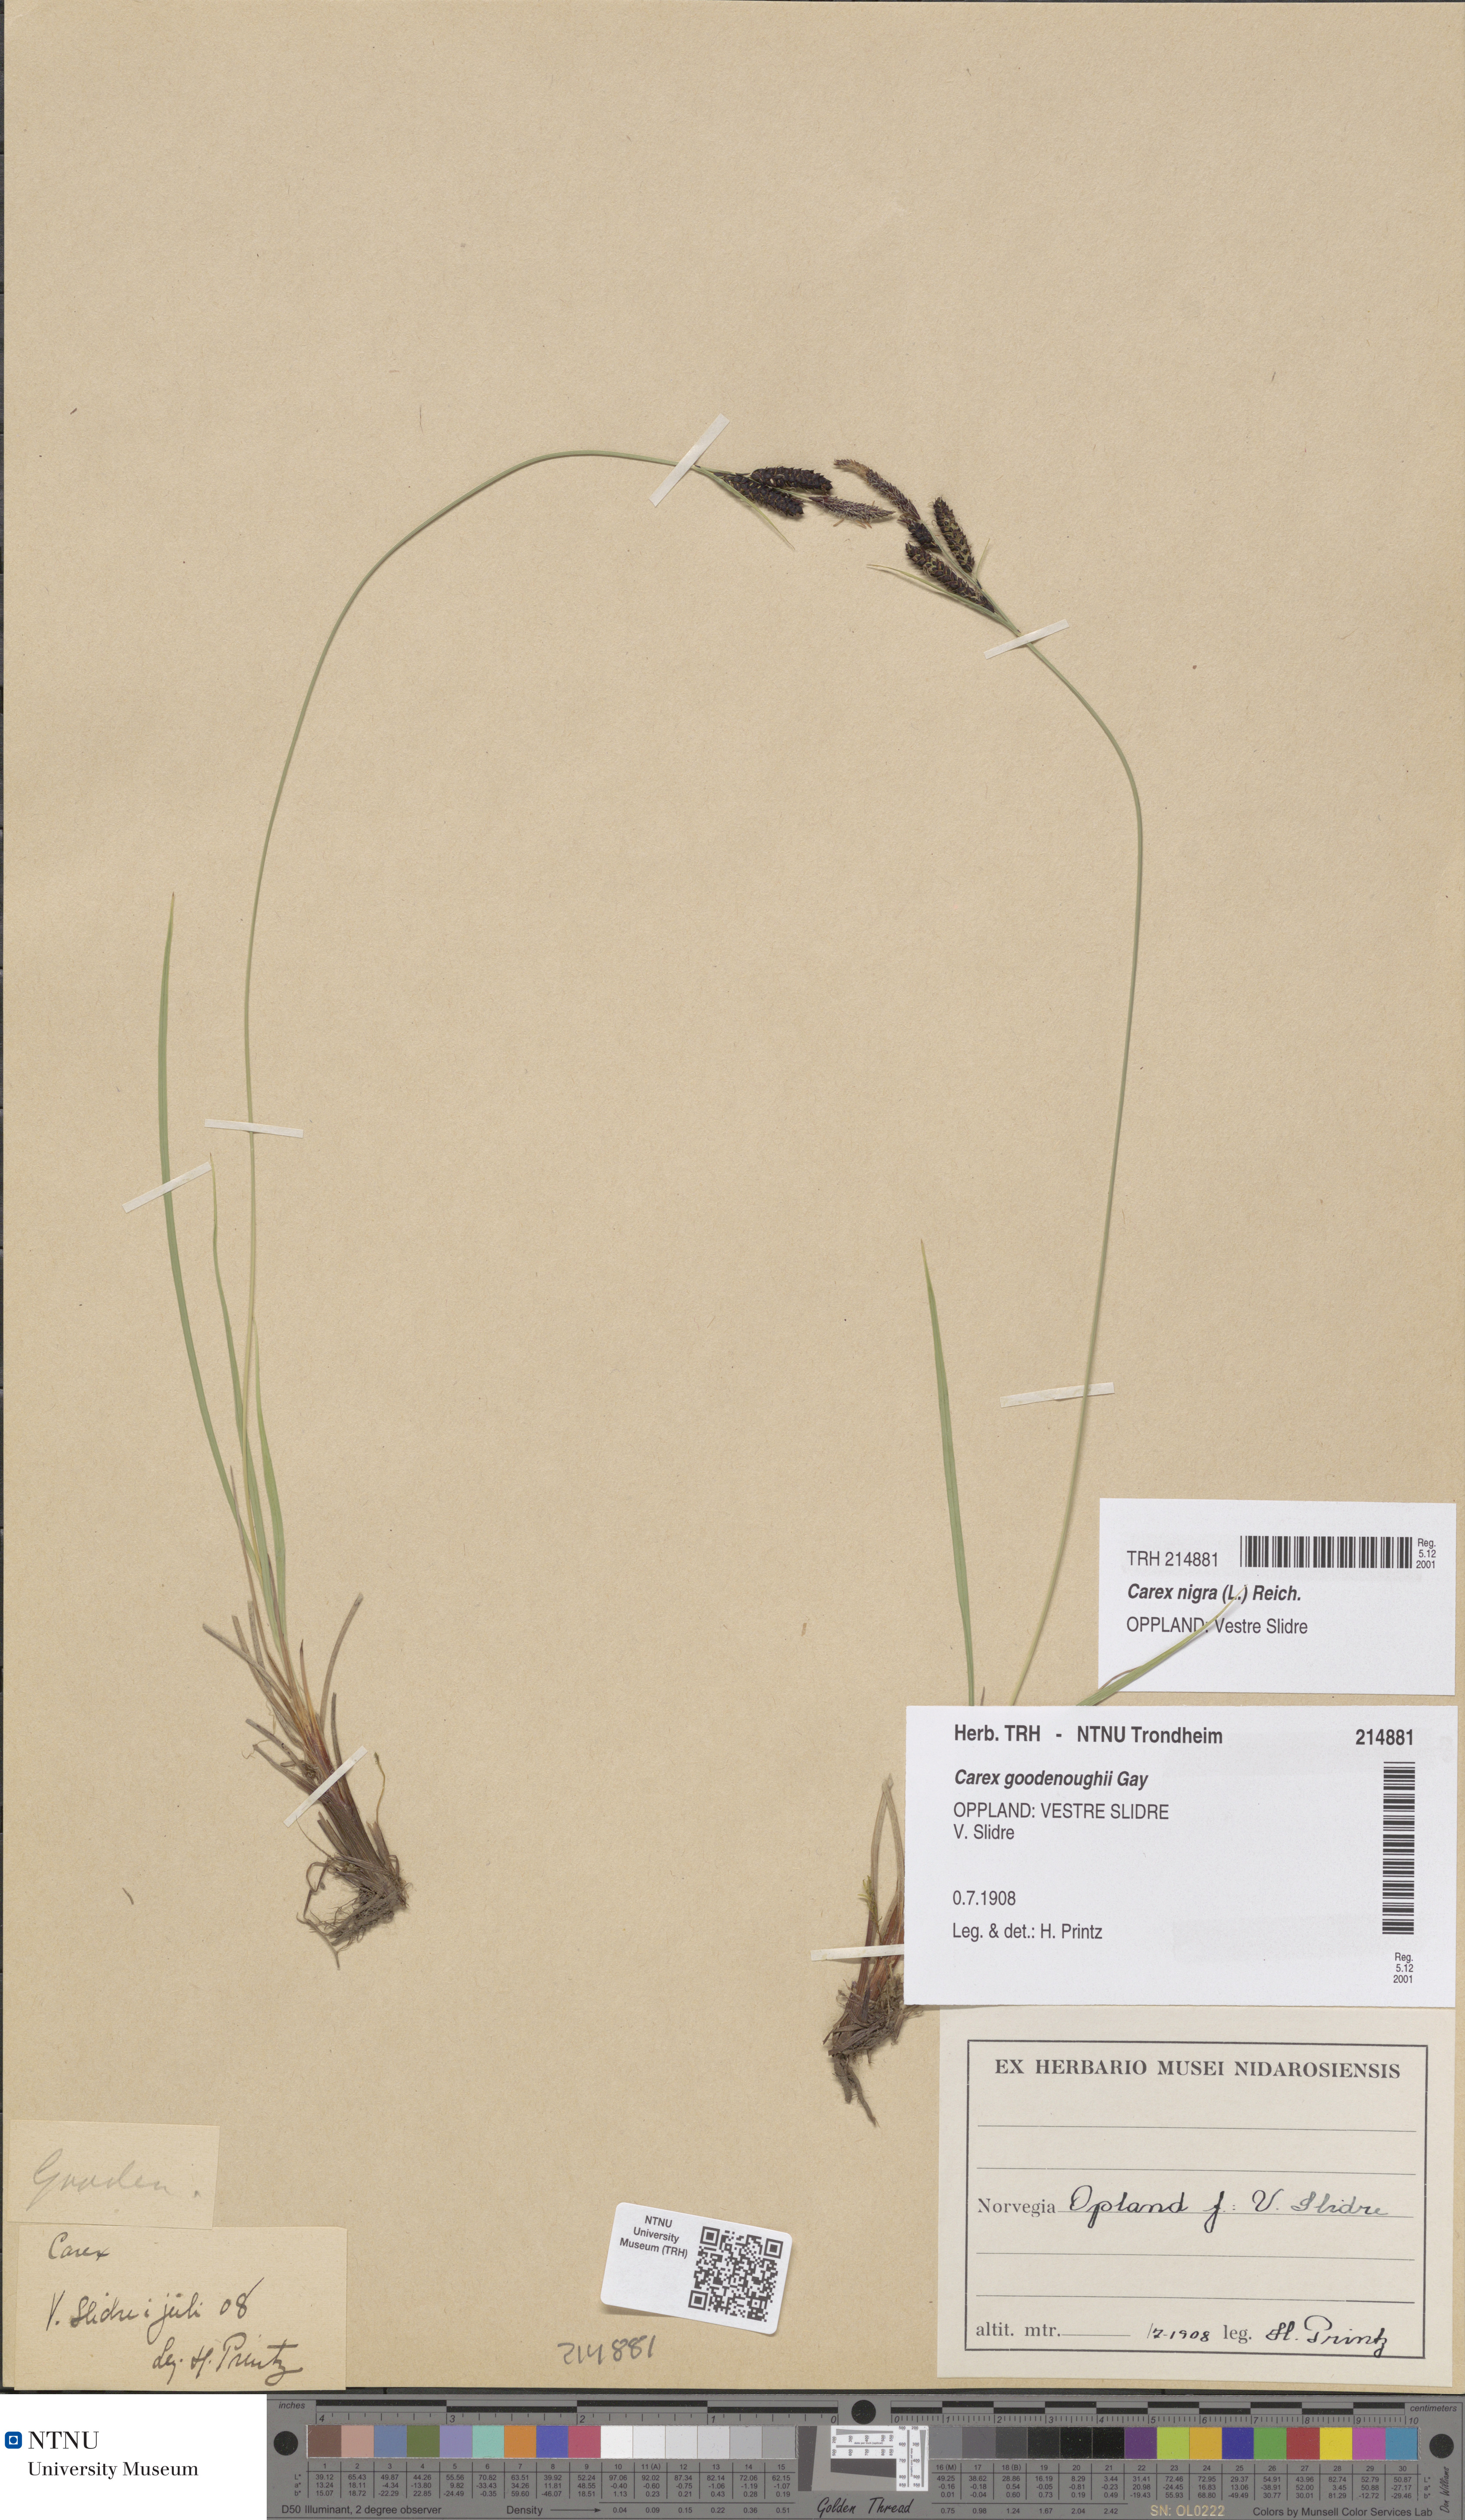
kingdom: Plantae
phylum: Tracheophyta
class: Liliopsida
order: Poales
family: Cyperaceae
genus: Carex
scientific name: Carex nigra
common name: Common sedge
